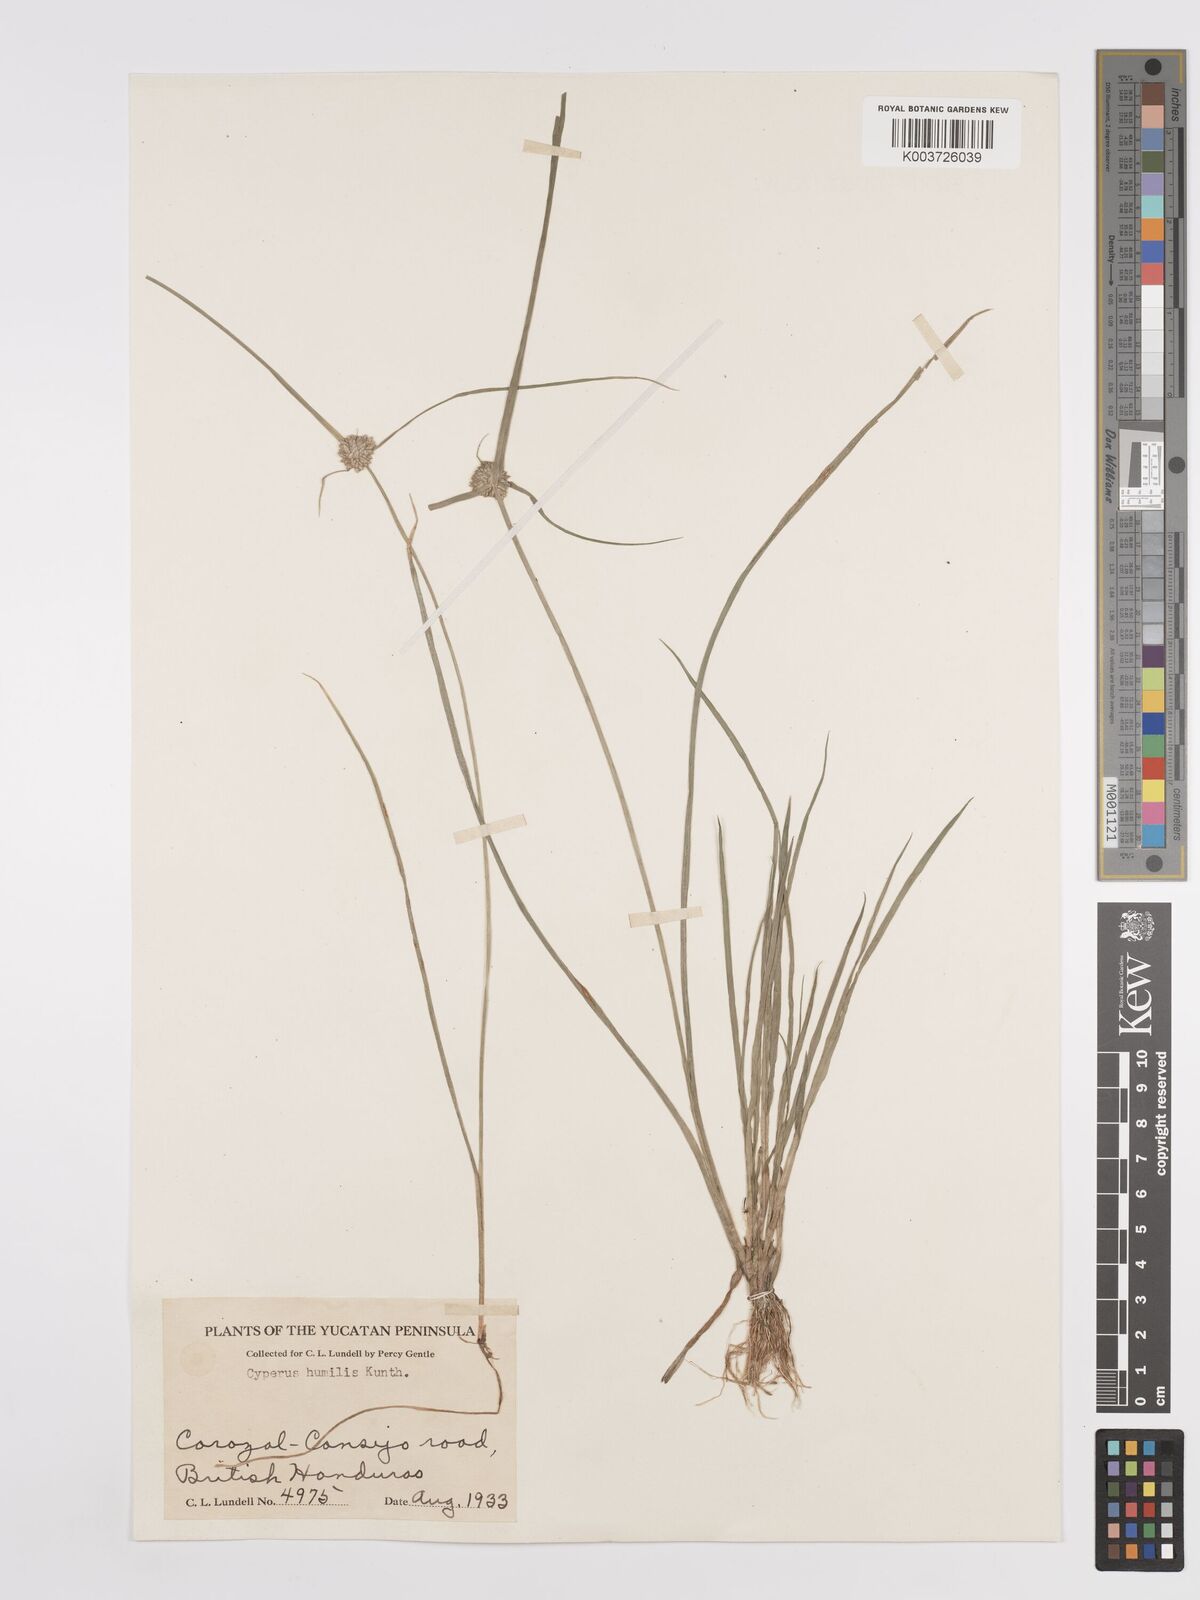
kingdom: Plantae
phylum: Tracheophyta
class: Liliopsida
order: Poales
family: Cyperaceae
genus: Cyperus
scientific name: Cyperus humilis
